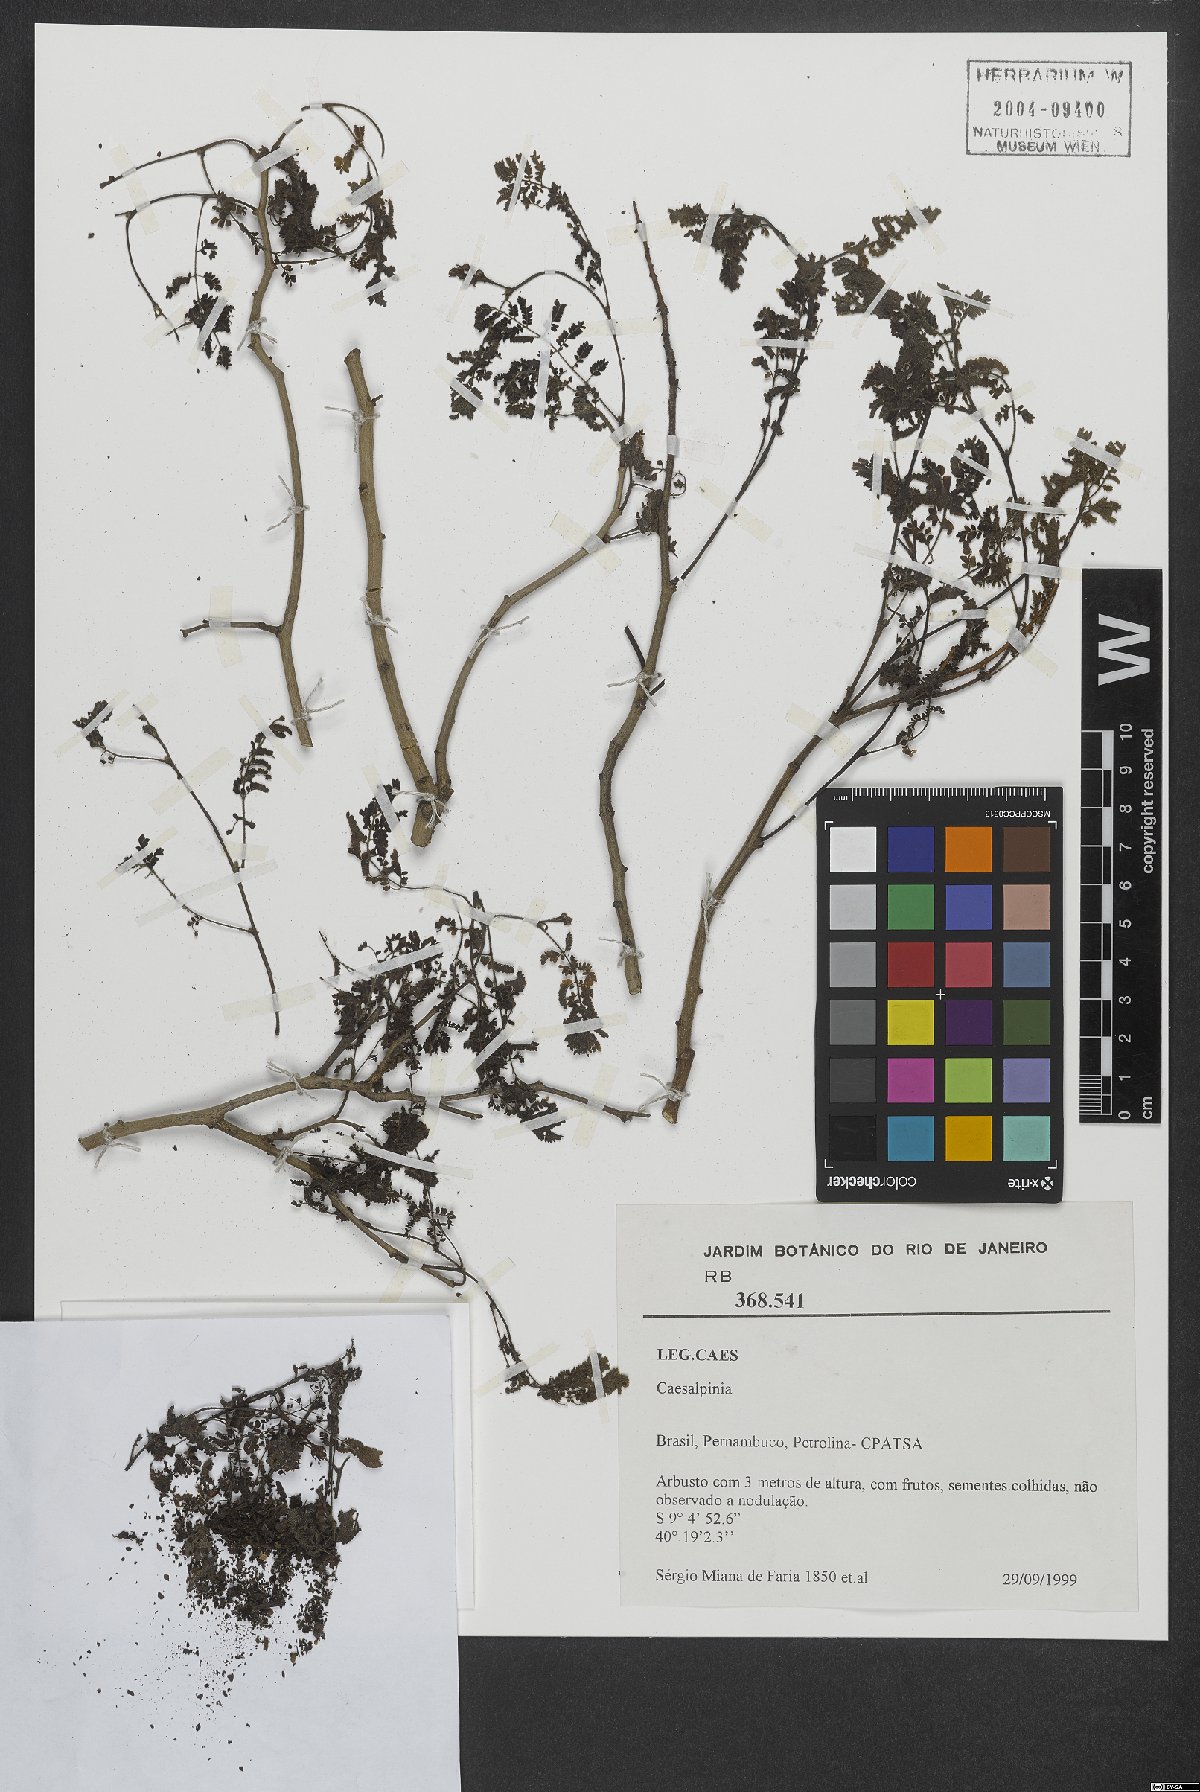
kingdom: Plantae
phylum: Tracheophyta
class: Magnoliopsida
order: Fabales
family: Fabaceae
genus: Caesalpinia
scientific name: Caesalpinia
